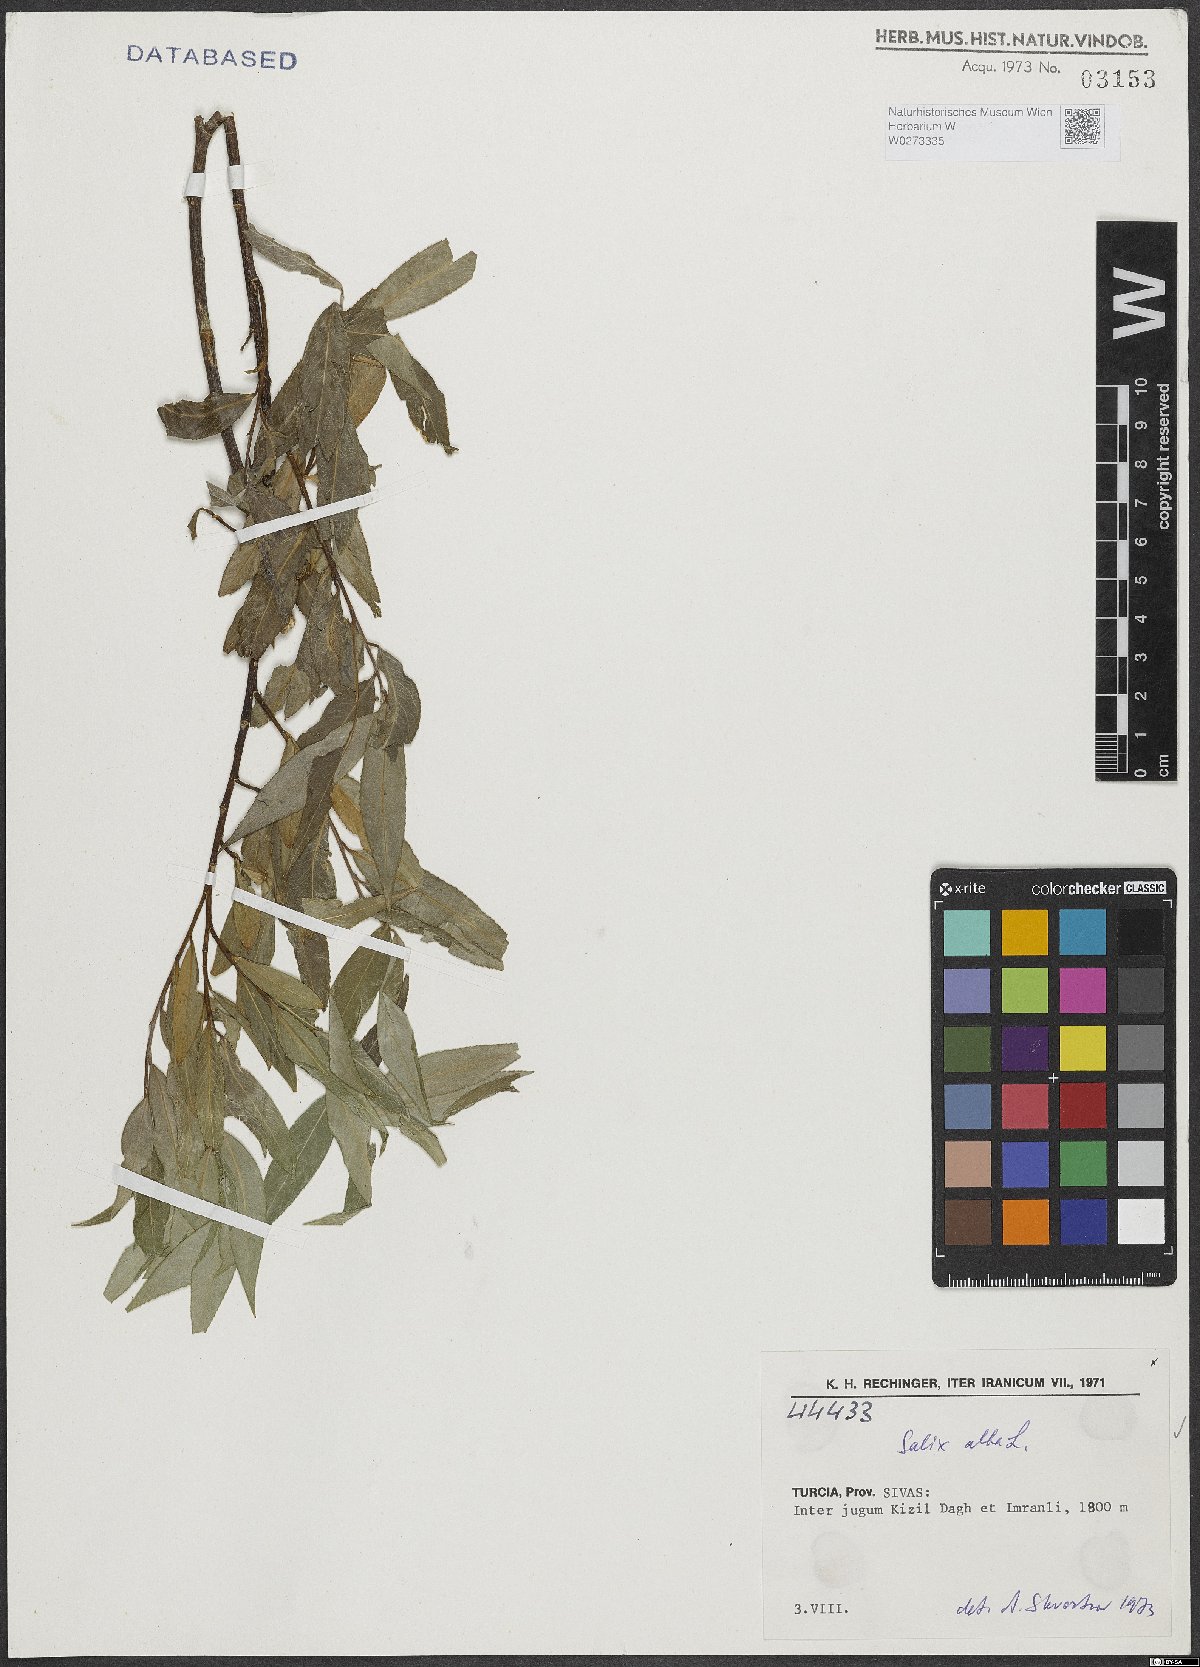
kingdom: Plantae
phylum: Tracheophyta
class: Magnoliopsida
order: Malpighiales
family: Salicaceae
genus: Salix
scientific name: Salix alba
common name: White willow
